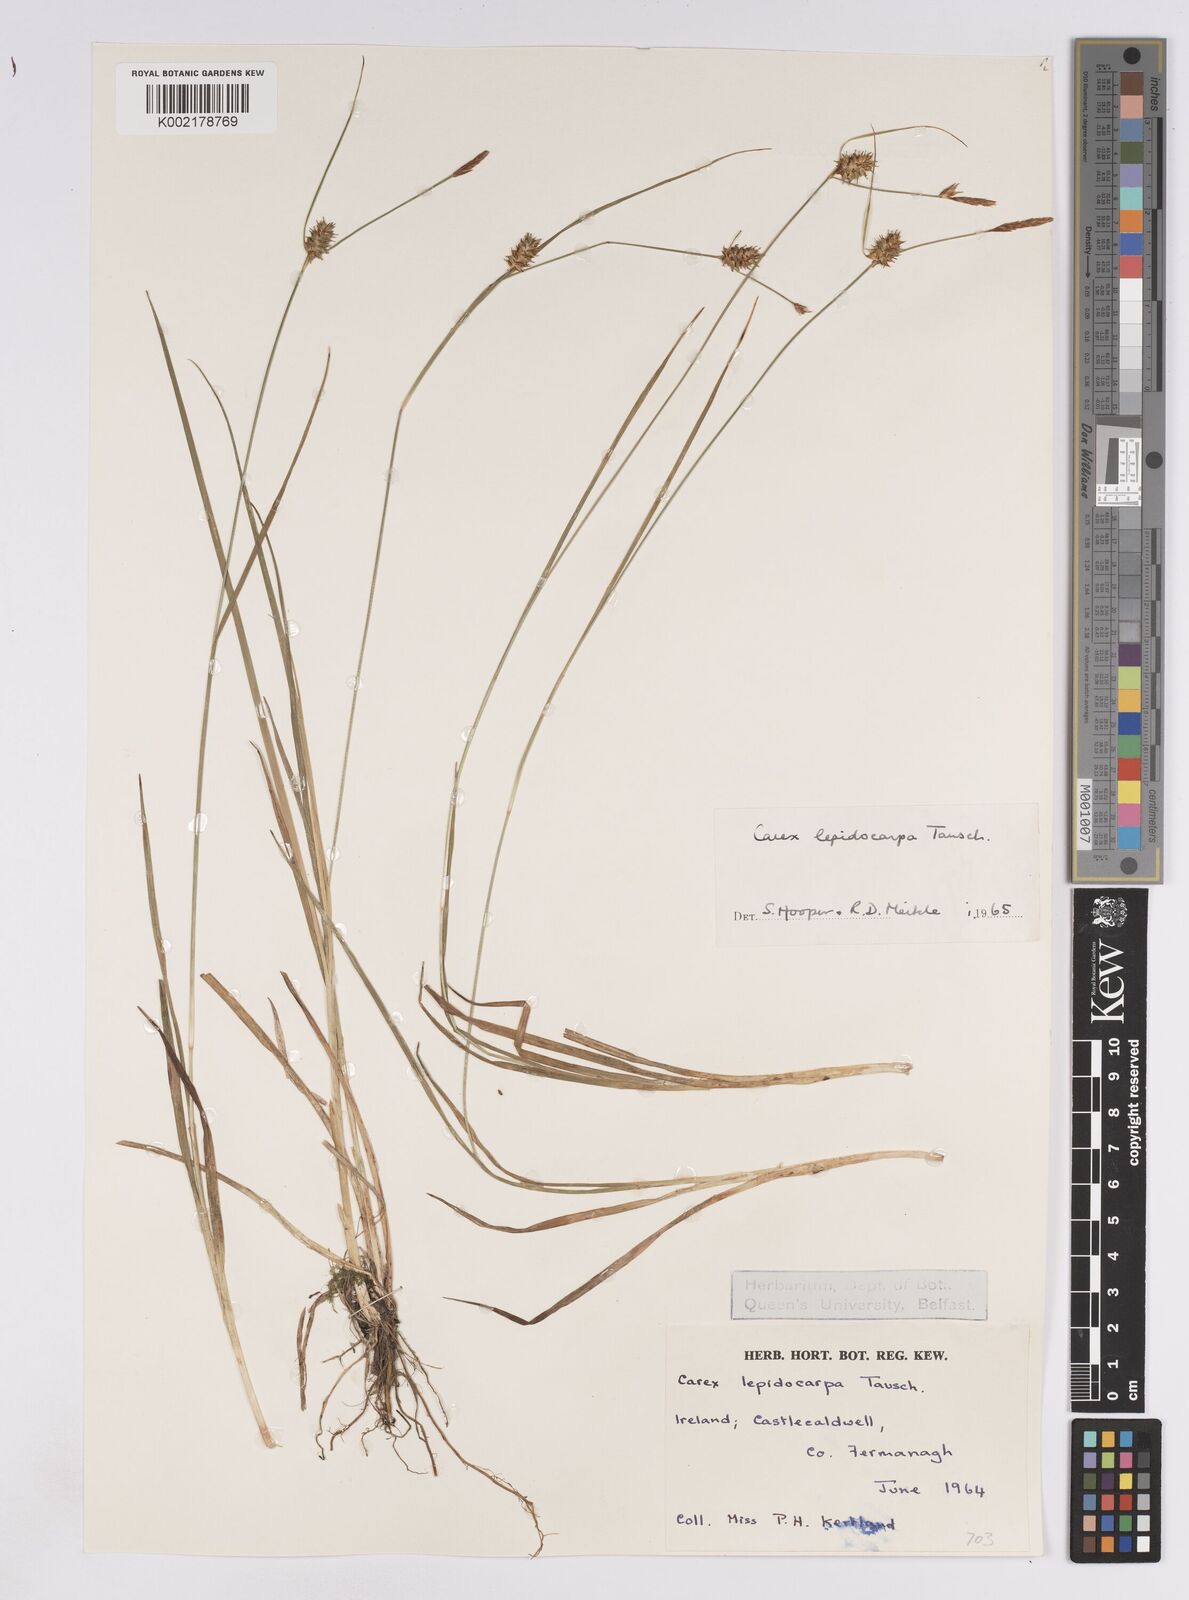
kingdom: Plantae
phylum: Tracheophyta
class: Liliopsida
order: Poales
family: Cyperaceae
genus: Carex
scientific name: Carex lepidocarpa
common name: Long-stalked yellow-sedge
